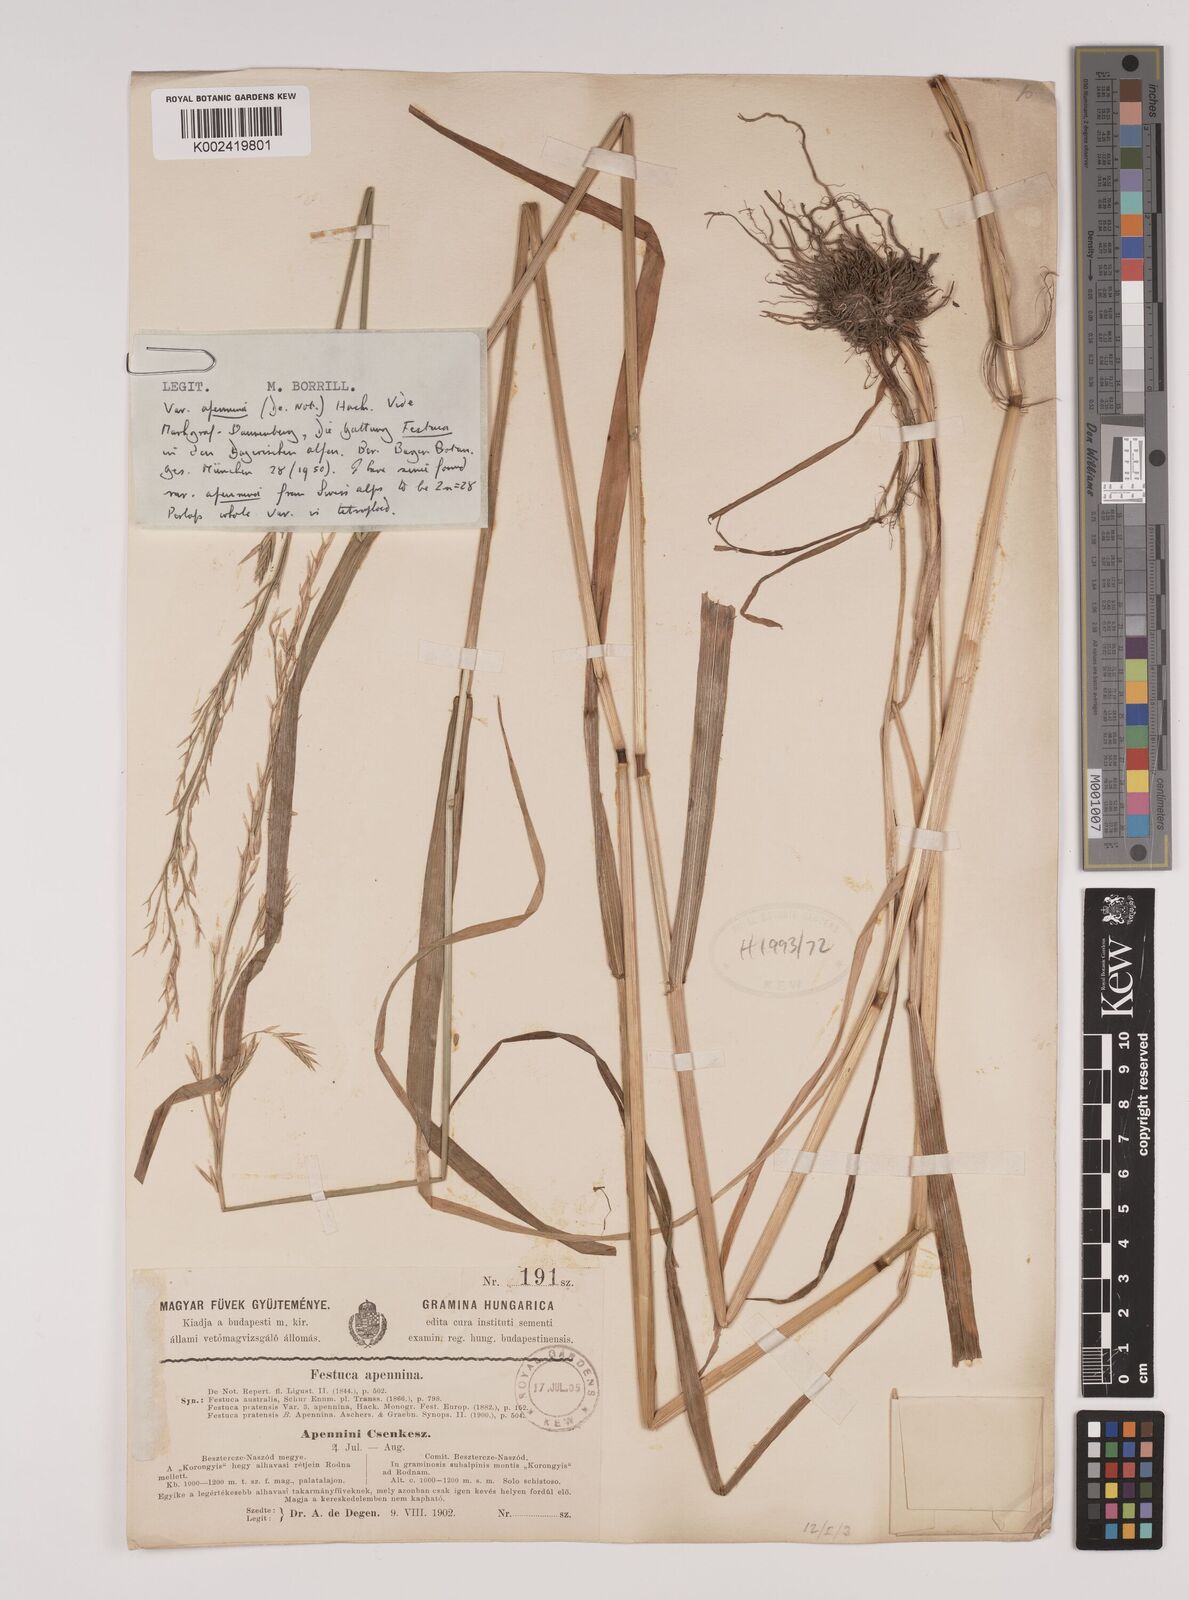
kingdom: Plantae
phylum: Tracheophyta
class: Liliopsida
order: Poales
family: Poaceae
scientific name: Poaceae
